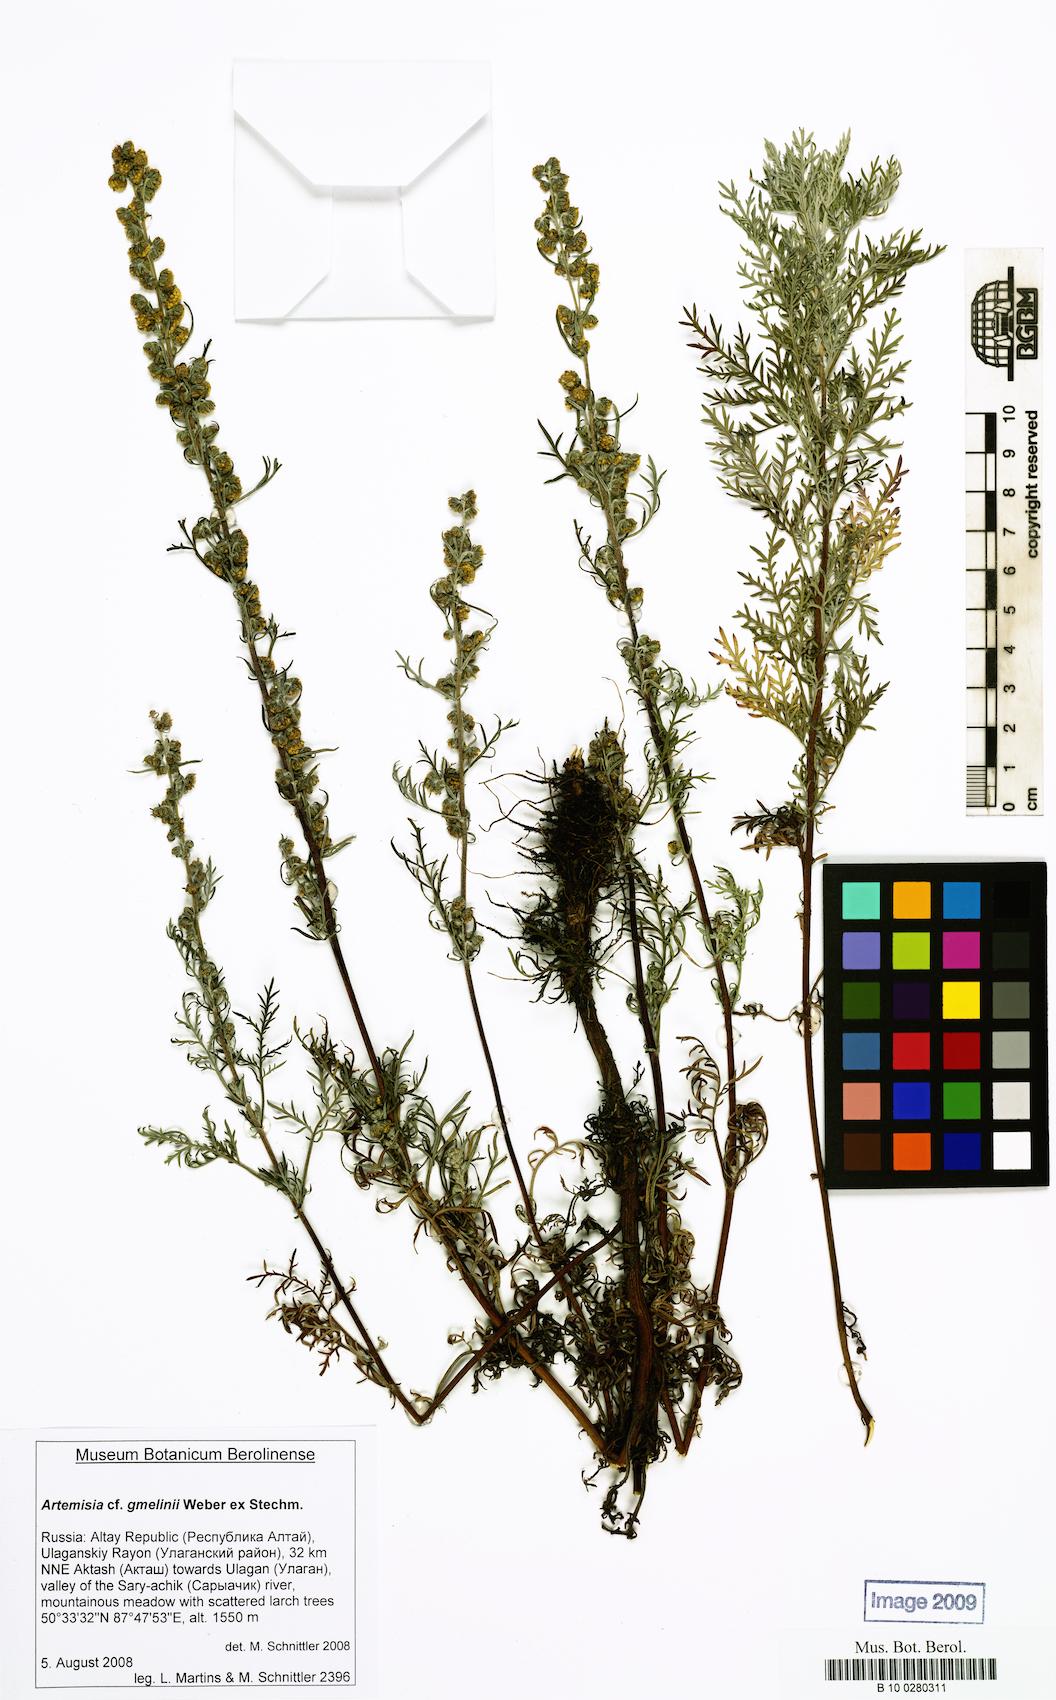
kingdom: Plantae
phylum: Tracheophyta
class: Magnoliopsida
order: Asterales
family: Asteraceae
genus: Artemisia
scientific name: Artemisia gmelinii
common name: Gmelin's wormwood
